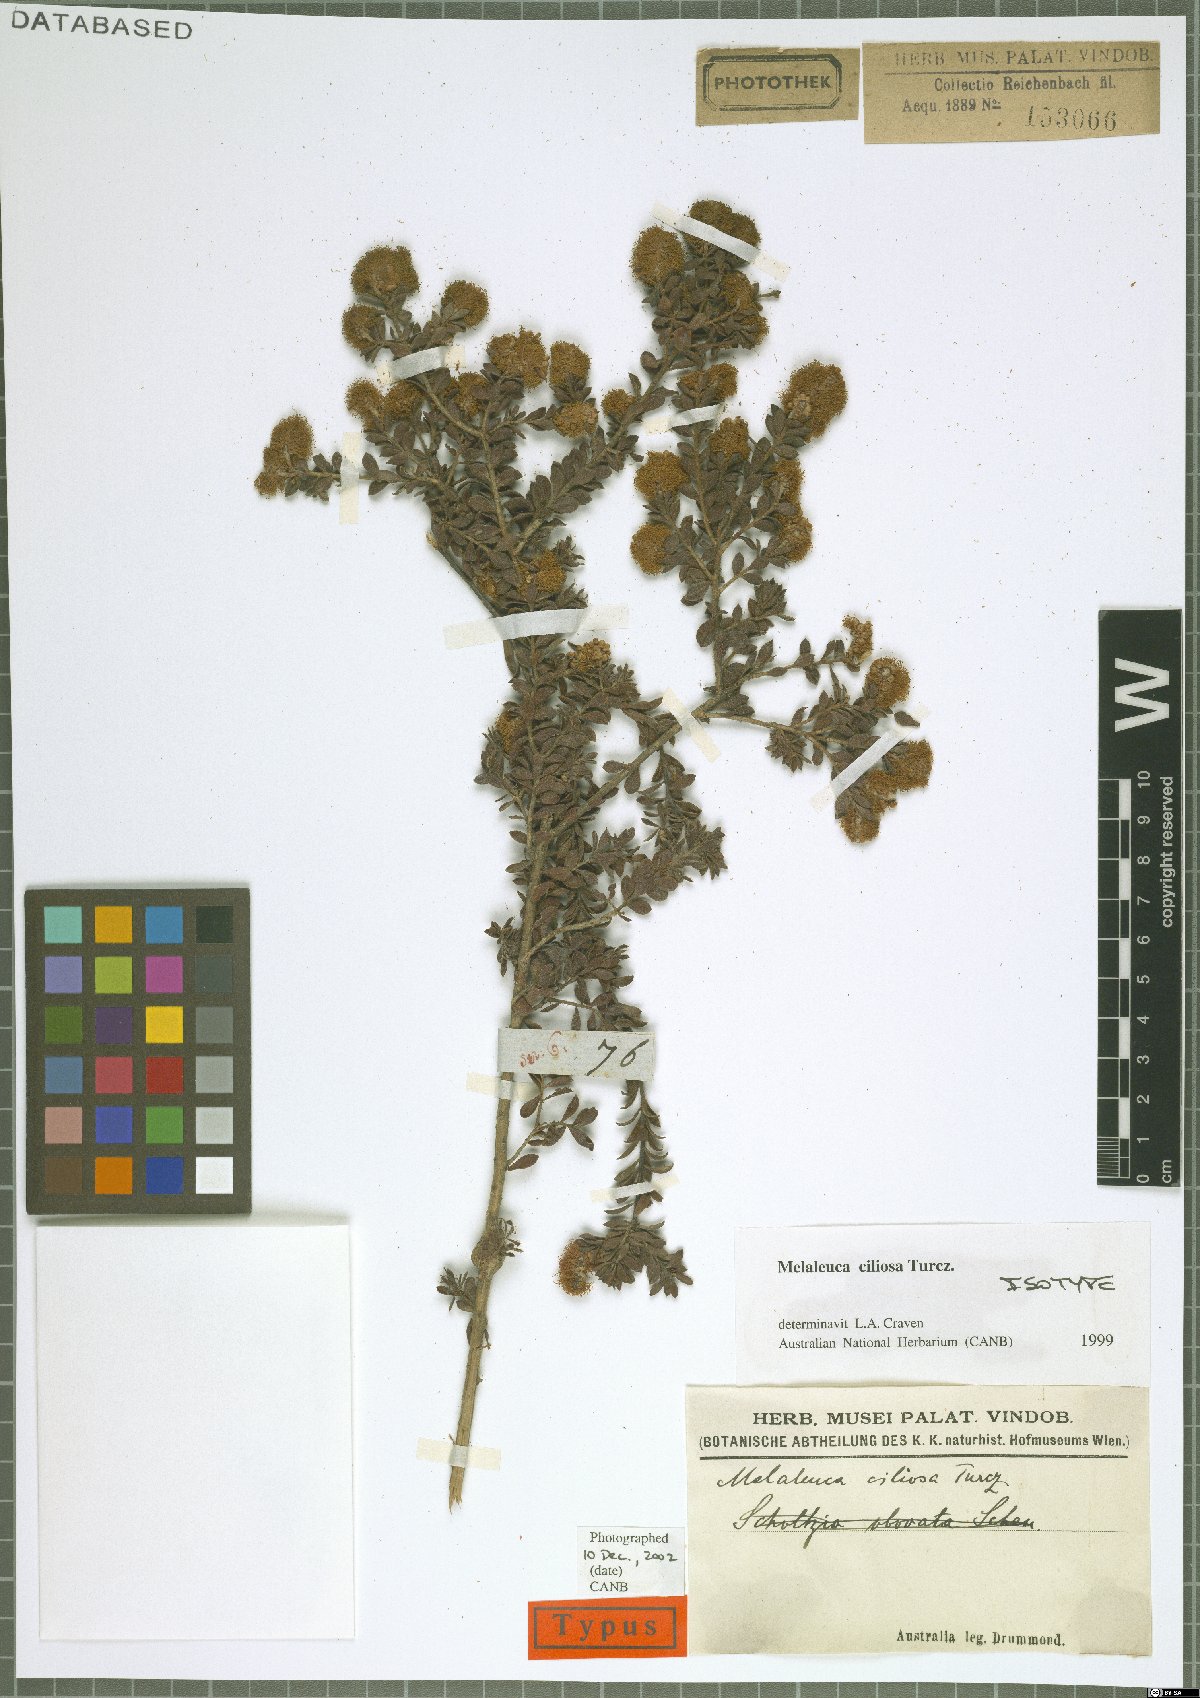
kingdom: Plantae
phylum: Tracheophyta
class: Magnoliopsida
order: Myrtales
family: Myrtaceae
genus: Melaleuca
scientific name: Melaleuca ciliosa
